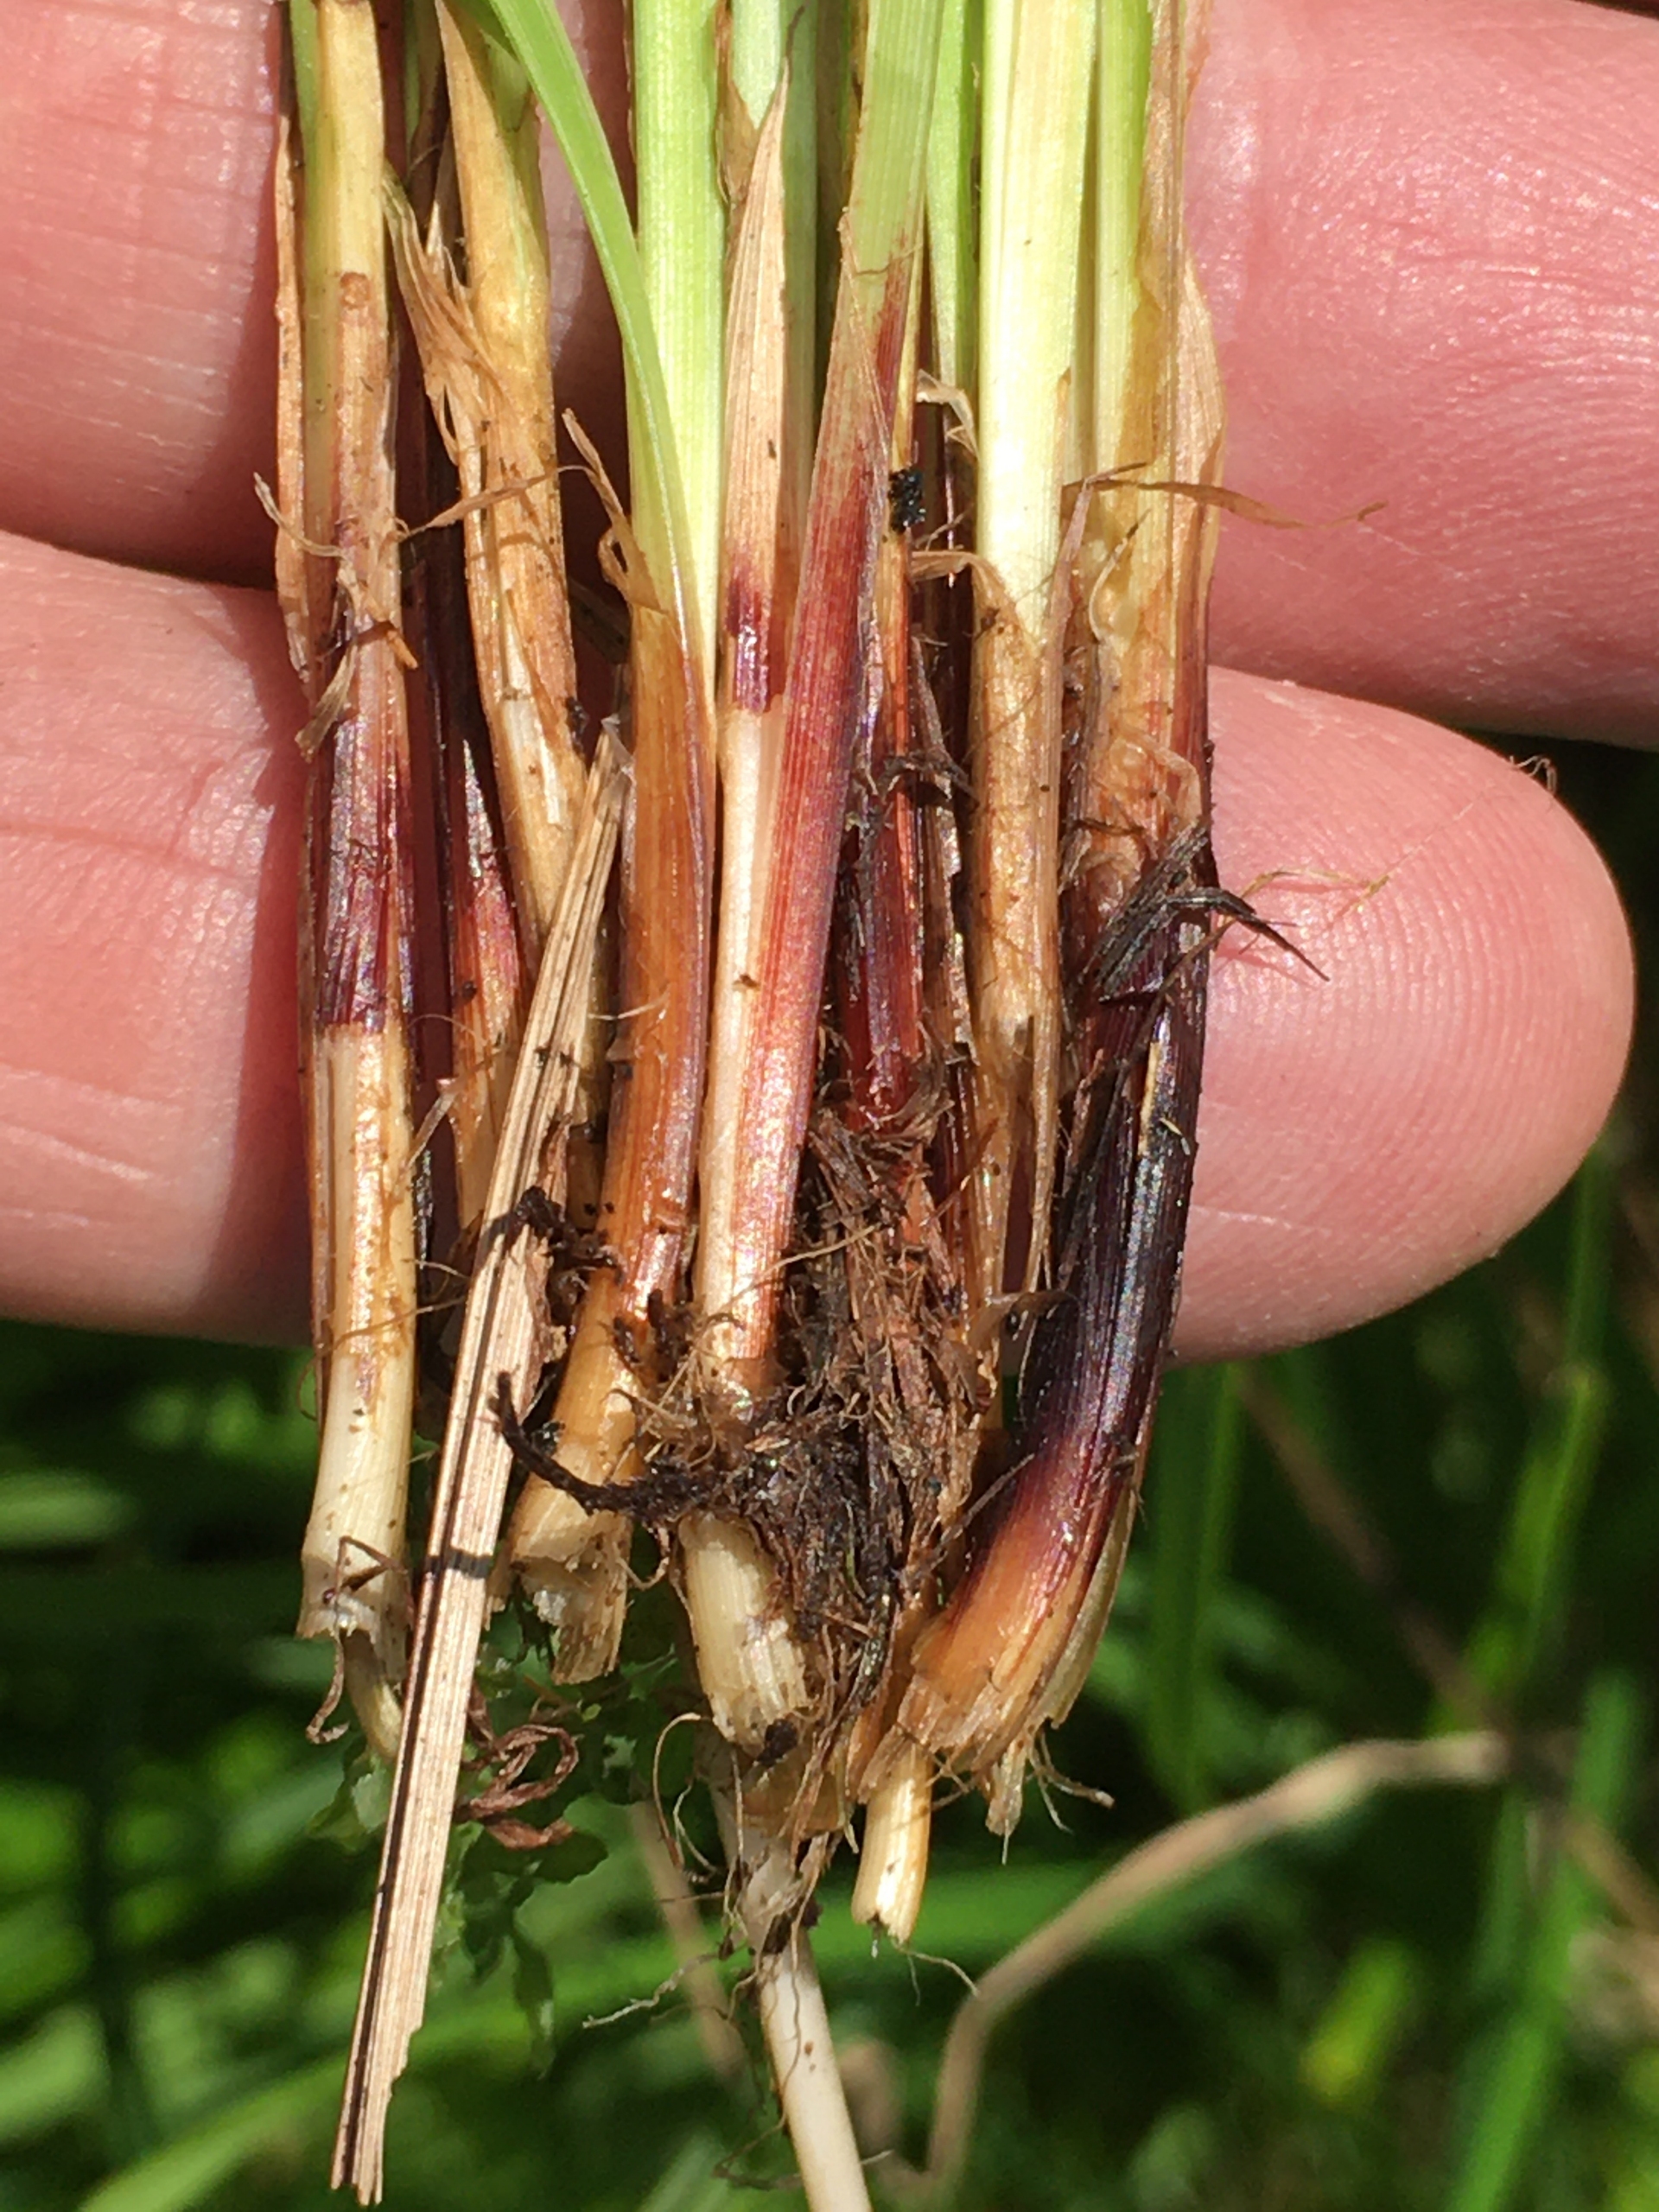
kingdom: Plantae
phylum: Tracheophyta
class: Liliopsida
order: Poales
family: Cyperaceae
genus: Carex
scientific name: Carex cespitosa
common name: Tue-star
